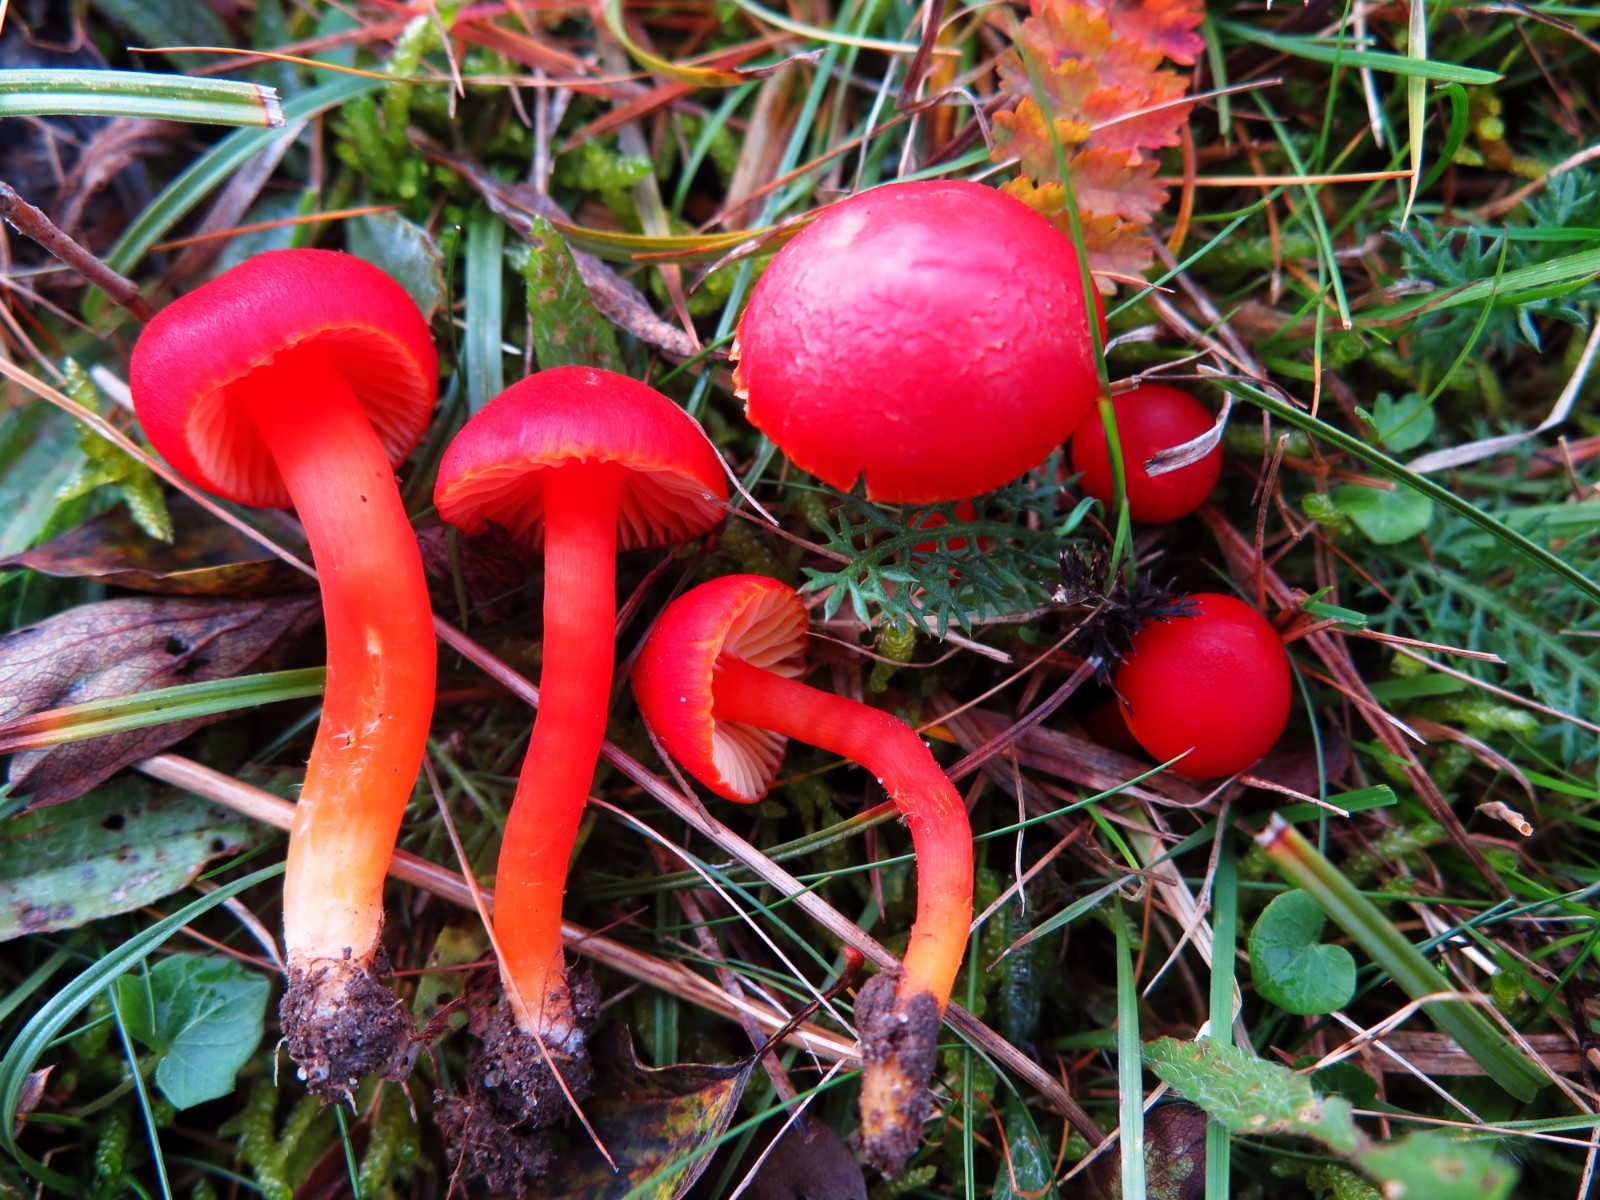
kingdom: Fungi
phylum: Basidiomycota
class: Agaricomycetes
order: Agaricales
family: Hygrophoraceae
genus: Hygrocybe
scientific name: Hygrocybe coccinea
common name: cinnober-vokshat
